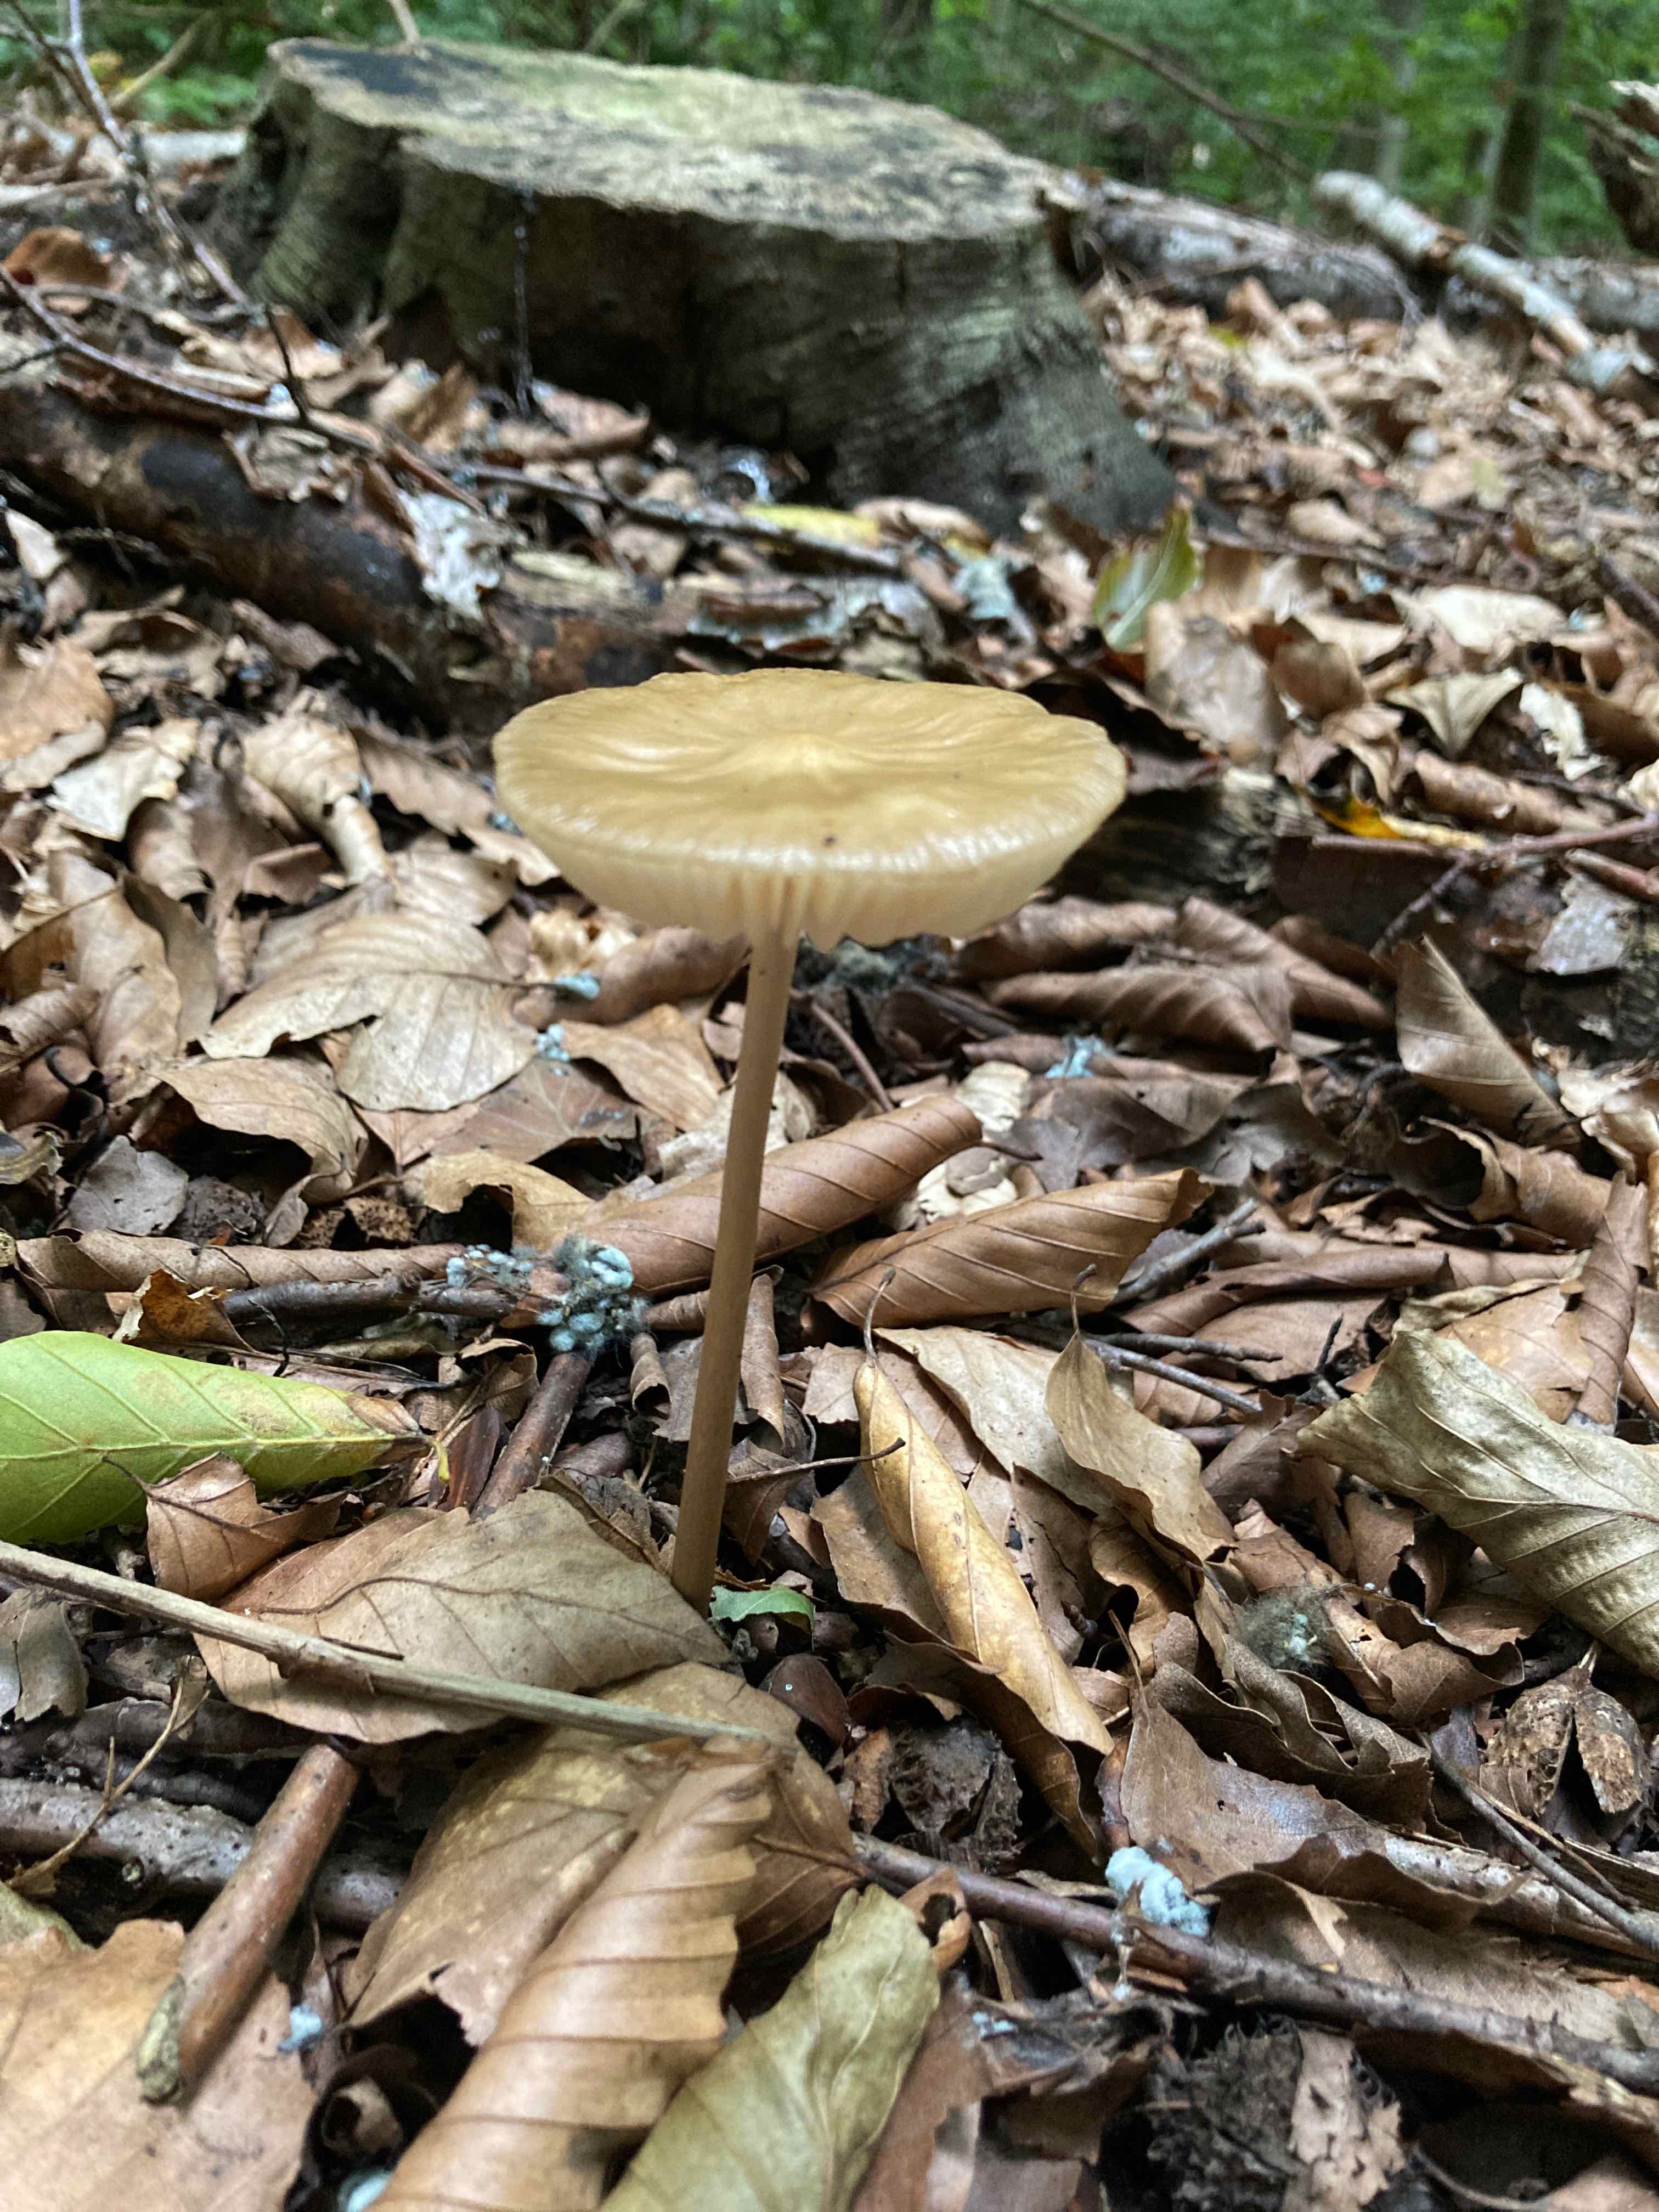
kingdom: Fungi
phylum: Basidiomycota
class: Agaricomycetes
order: Agaricales
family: Physalacriaceae
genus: Hymenopellis
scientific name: Hymenopellis radicata
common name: almindelig pælerodshat
